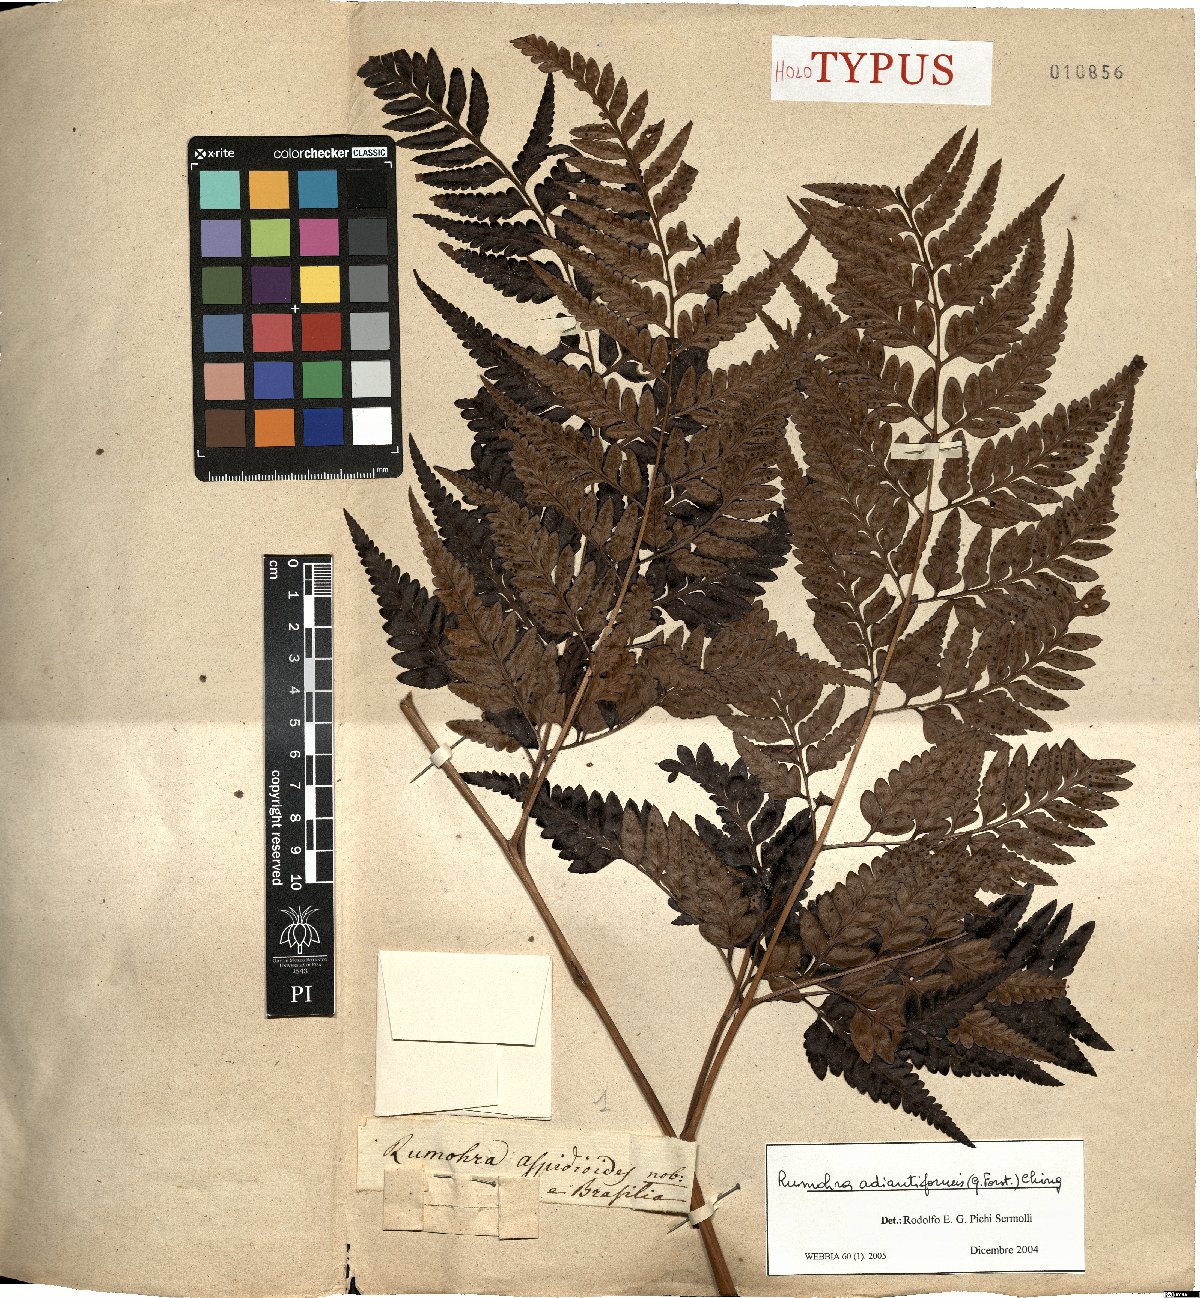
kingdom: Plantae
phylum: Tracheophyta
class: Polypodiopsida
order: Polypodiales
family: Dryopteridaceae
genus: Rumohra
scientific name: Rumohra adiantiformis
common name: Leather fern
